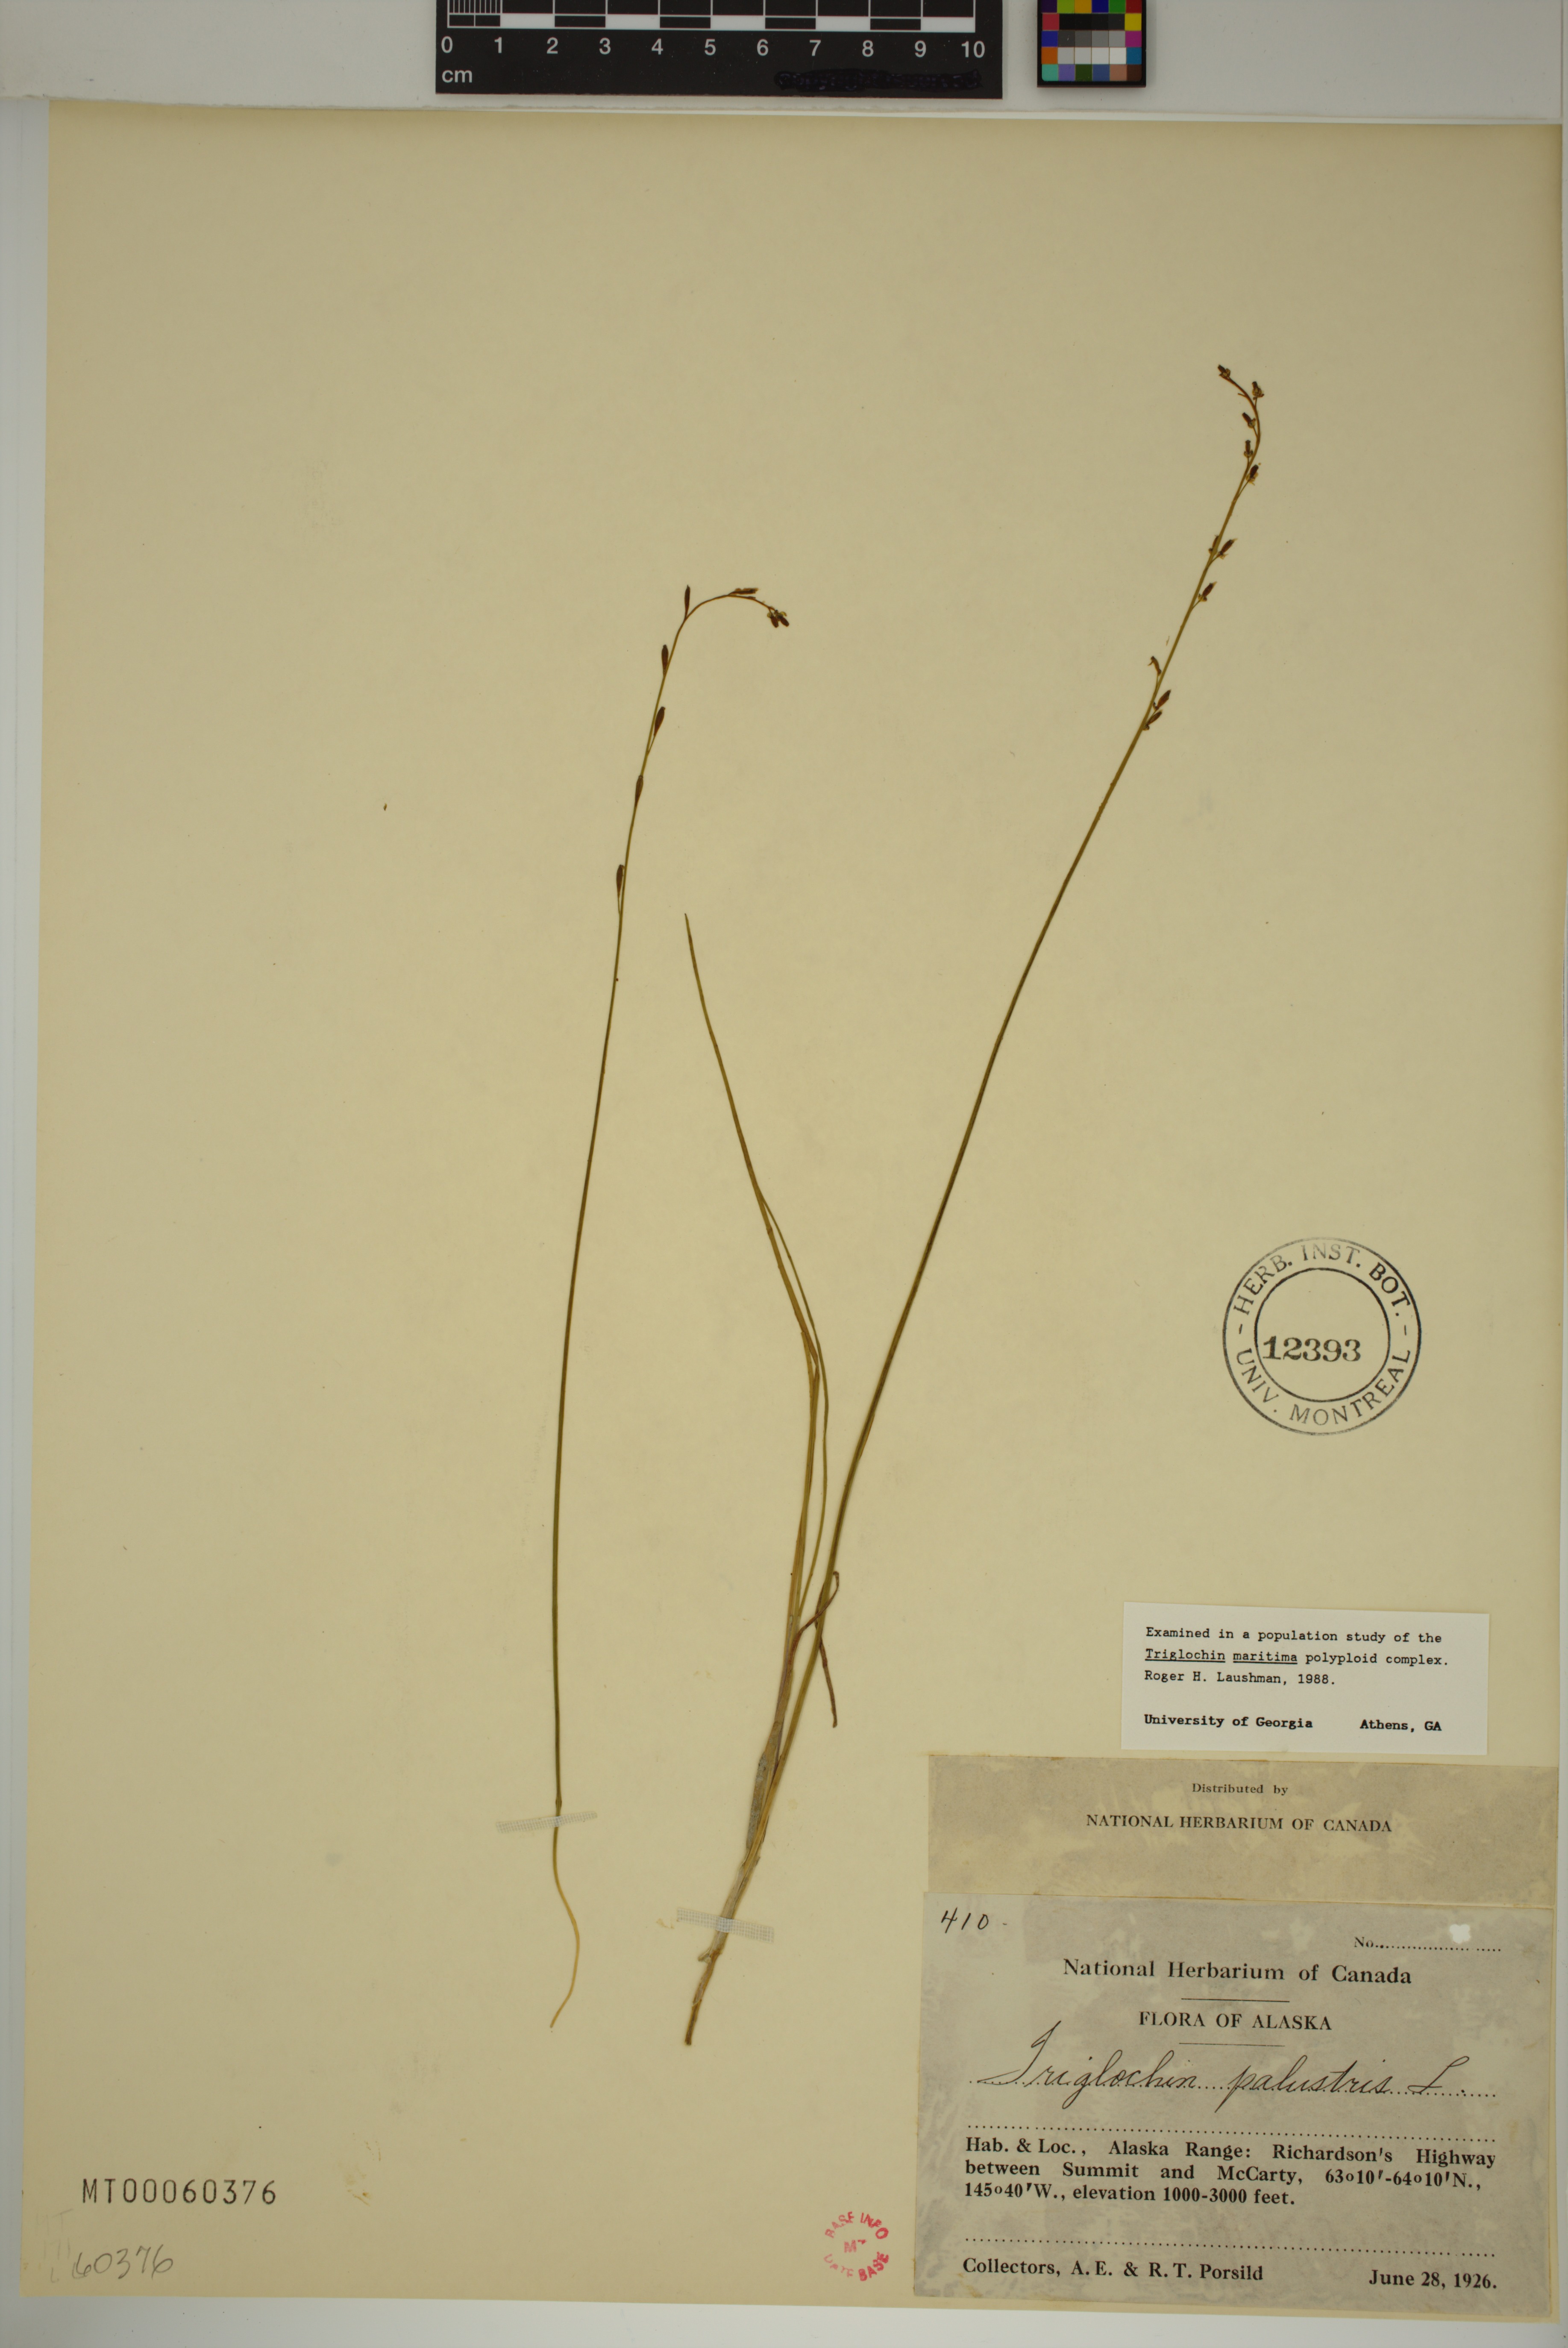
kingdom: Plantae
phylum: Tracheophyta
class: Liliopsida
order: Alismatales
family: Juncaginaceae
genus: Triglochin
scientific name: Triglochin palustris
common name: Marsh arrowgrass
